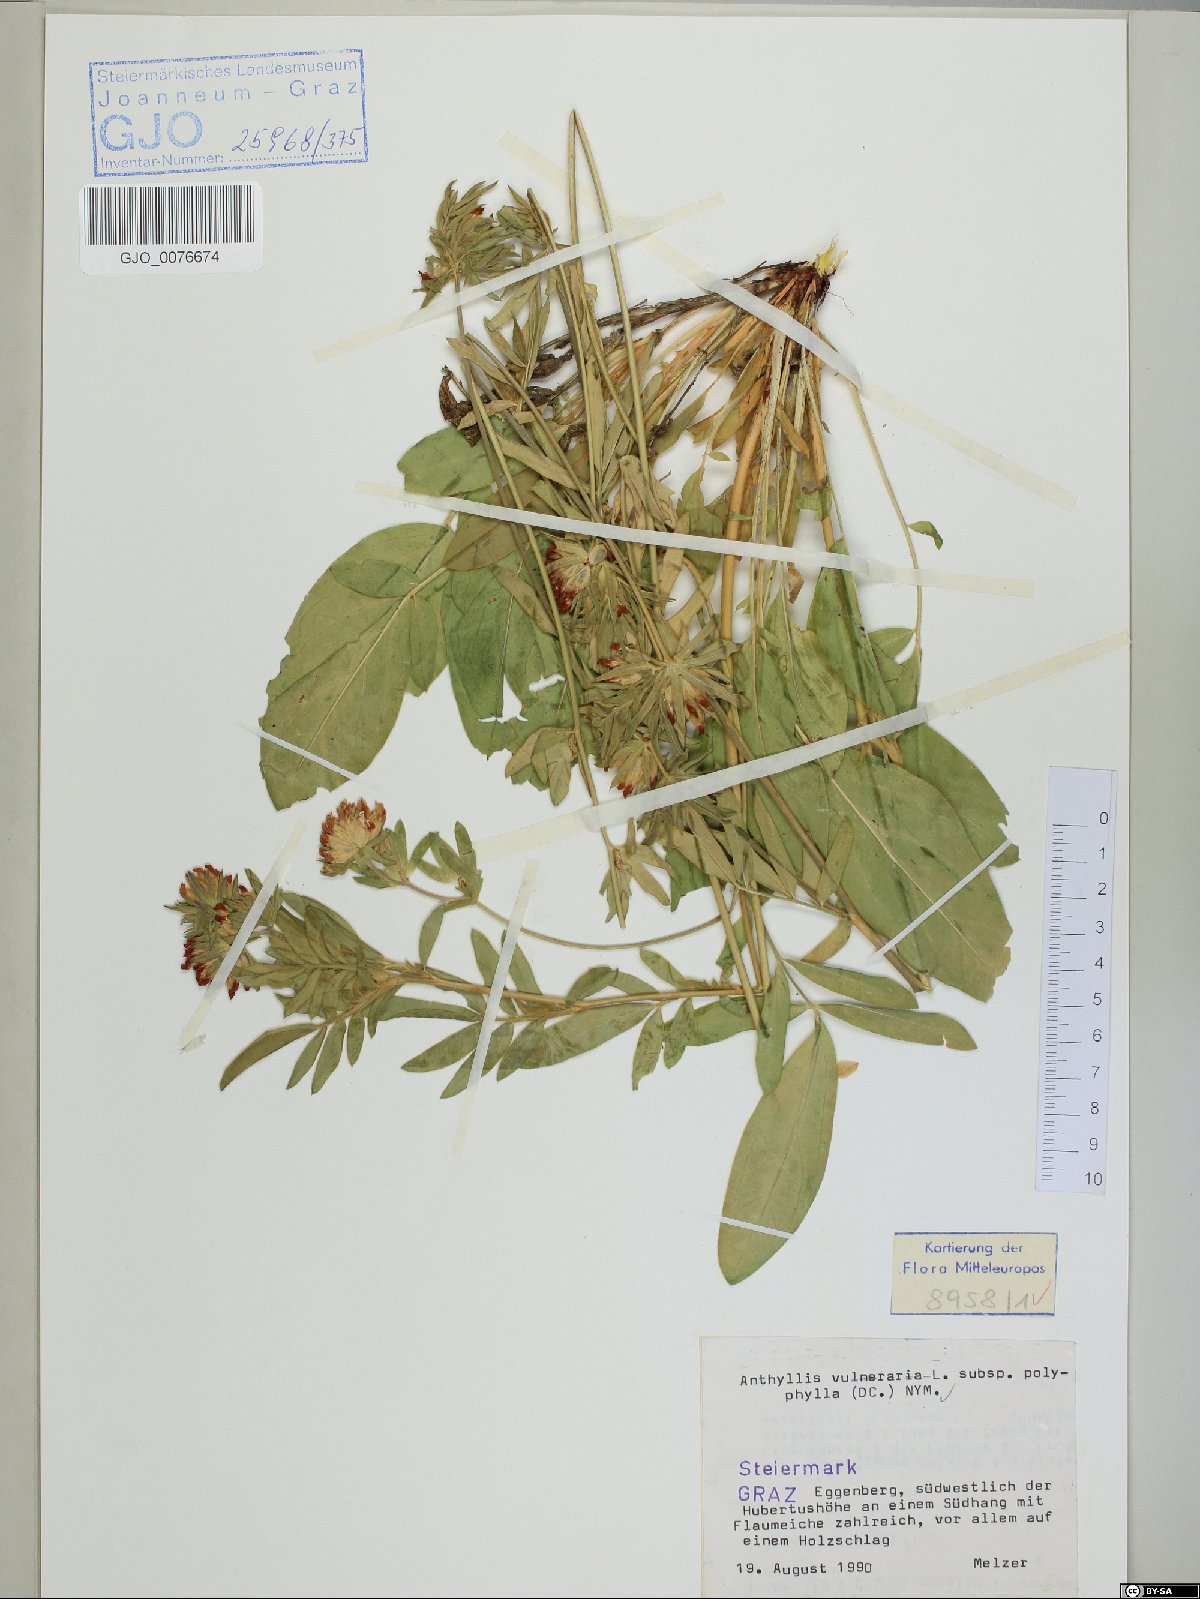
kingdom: Plantae
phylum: Tracheophyta
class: Magnoliopsida
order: Fabales
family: Fabaceae
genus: Anthyllis
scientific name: Anthyllis vulneraria
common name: Kidney vetch
